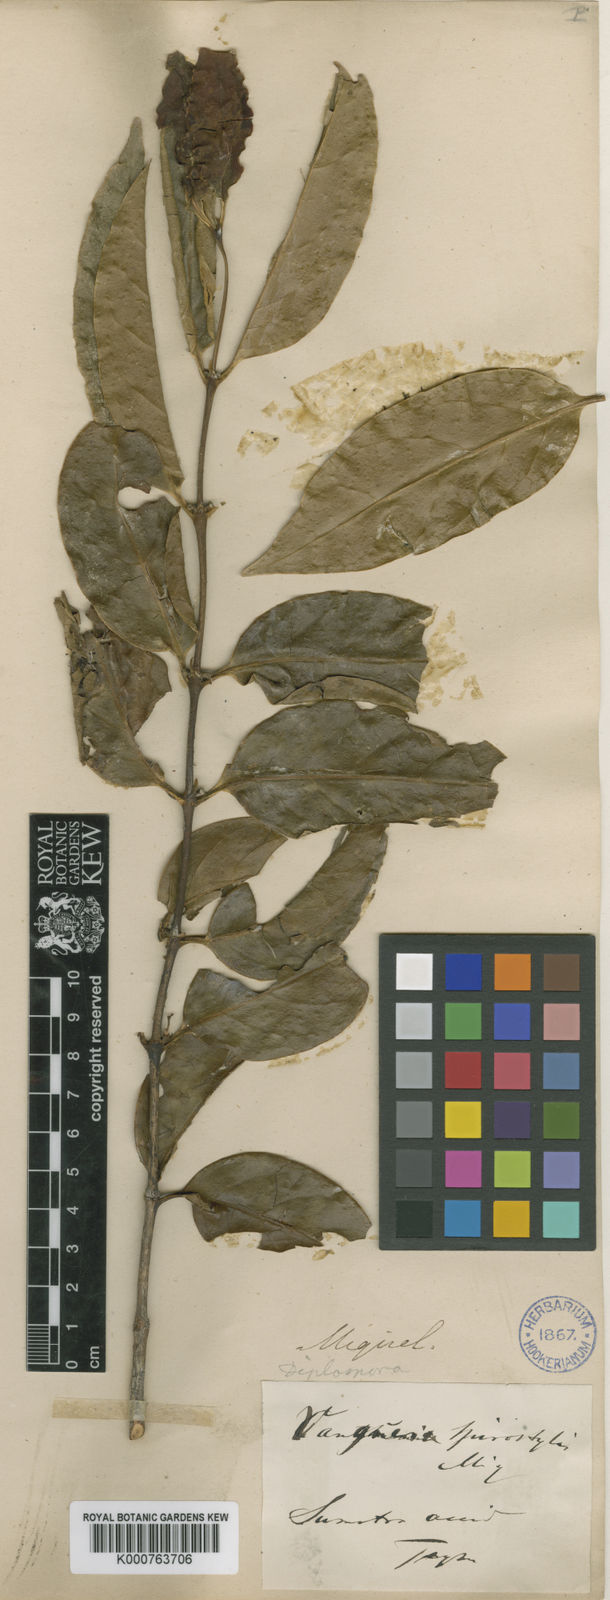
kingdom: Plantae
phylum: Tracheophyta
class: Magnoliopsida
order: Gentianales
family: Rubiaceae
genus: Psydrax
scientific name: Psydrax longistylus
